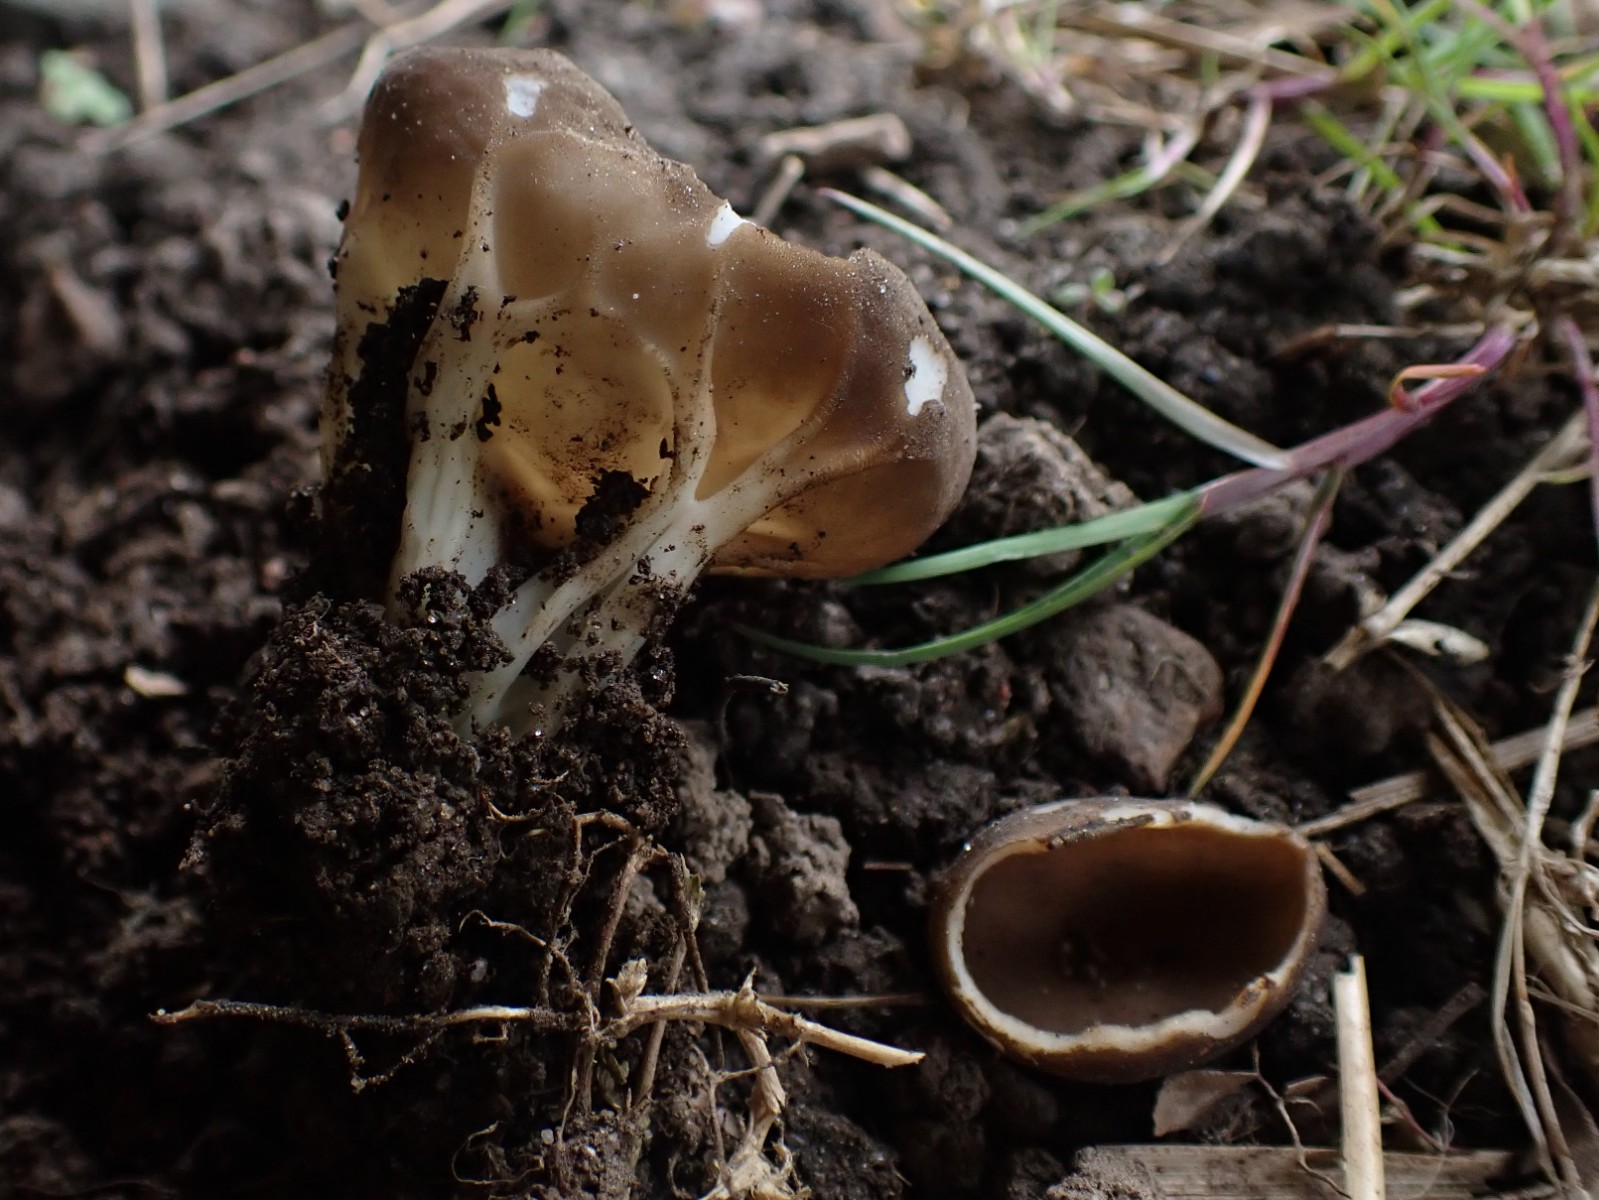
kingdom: Fungi
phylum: Ascomycota
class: Pezizomycetes
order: Pezizales
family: Helvellaceae
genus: Helvella
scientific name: Helvella acetabulum
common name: pokal-foldhat
